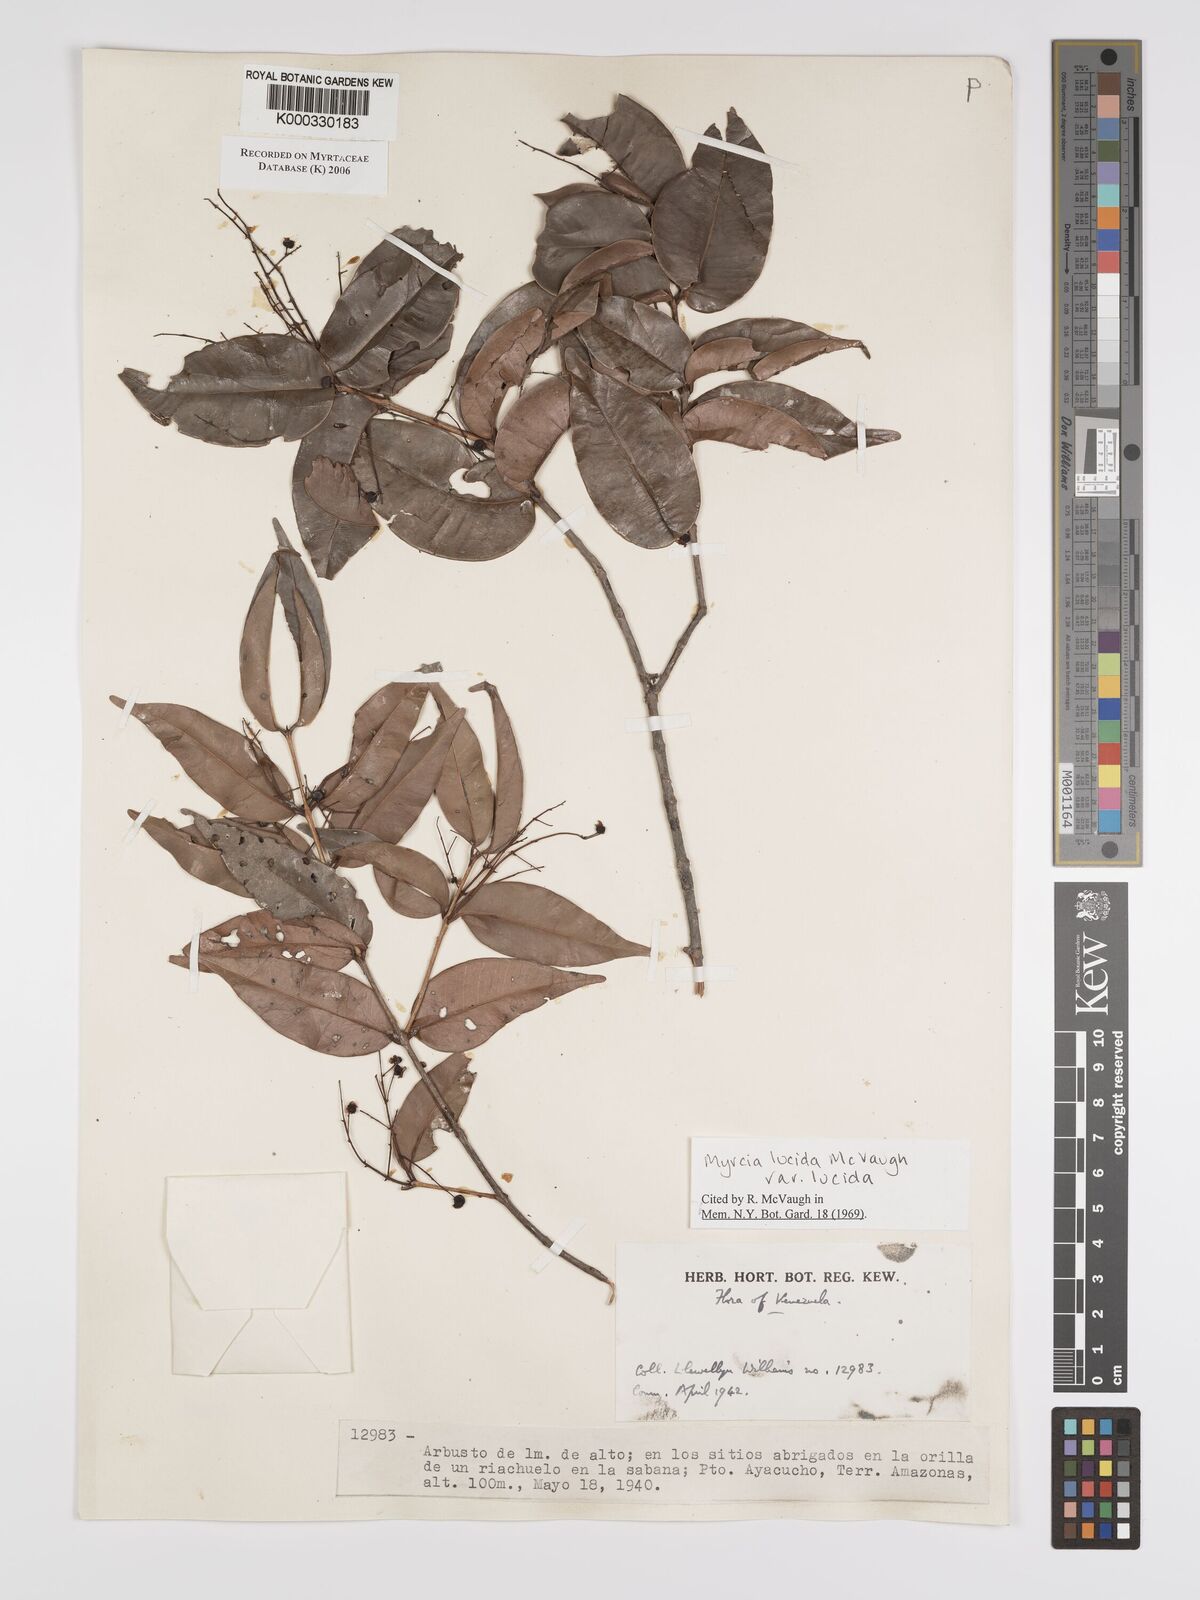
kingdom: Plantae
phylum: Tracheophyta
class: Magnoliopsida
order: Myrtales
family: Myrtaceae
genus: Myrcia
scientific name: Myrcia inaequiloba
